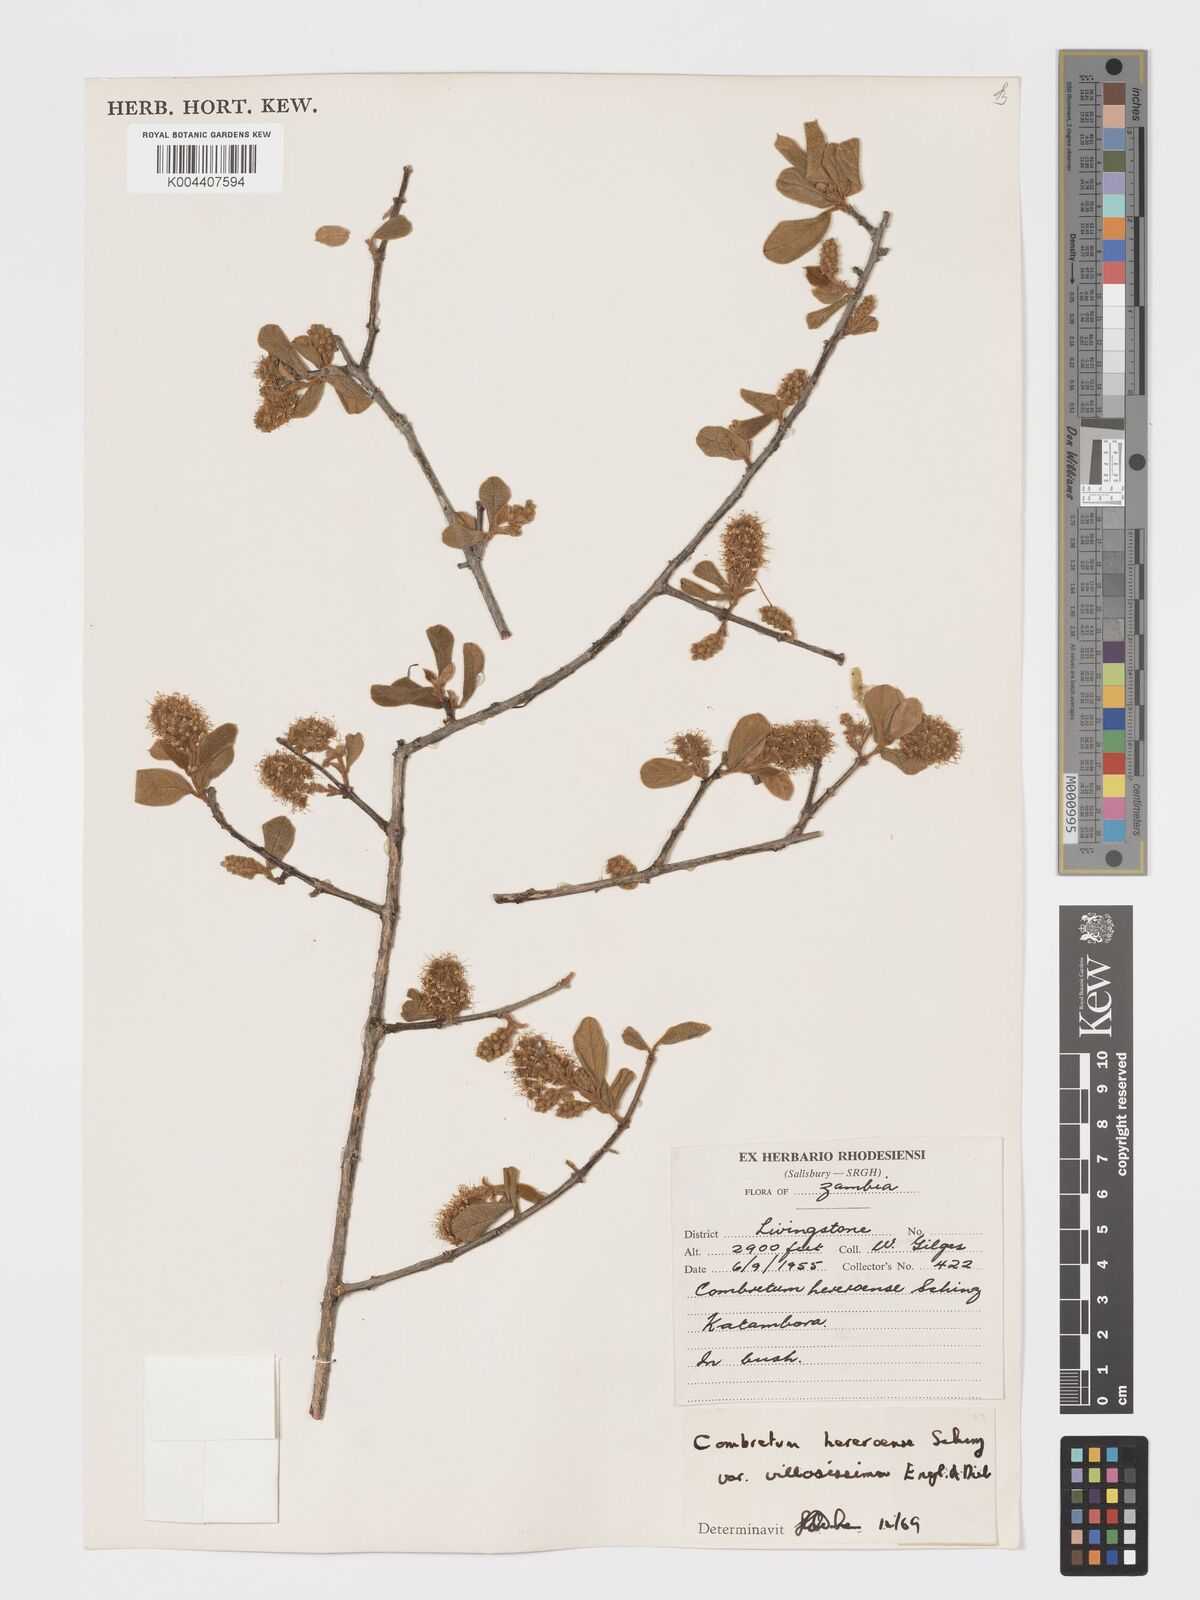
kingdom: Plantae
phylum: Tracheophyta
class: Magnoliopsida
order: Myrtales
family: Combretaceae
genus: Combretum
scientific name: Combretum hereroense
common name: Russet bushwillow
